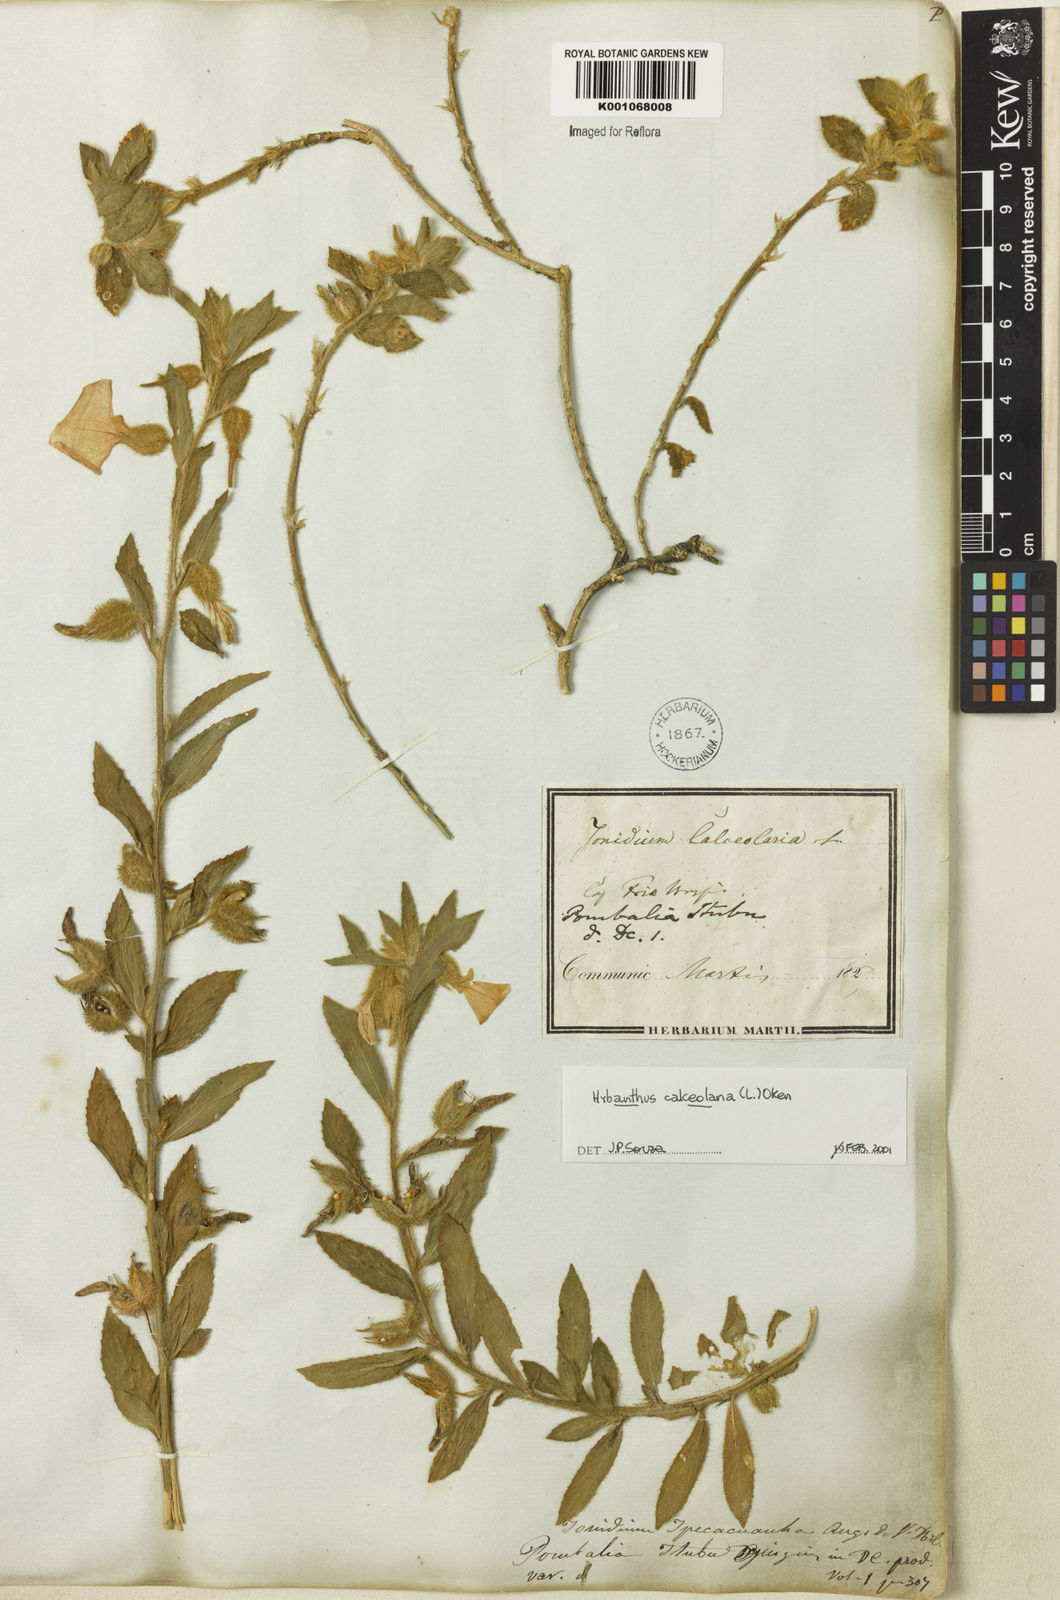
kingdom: Plantae
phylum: Tracheophyta
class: Magnoliopsida
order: Malpighiales
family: Violaceae
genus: Hybanthus
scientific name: Hybanthus
